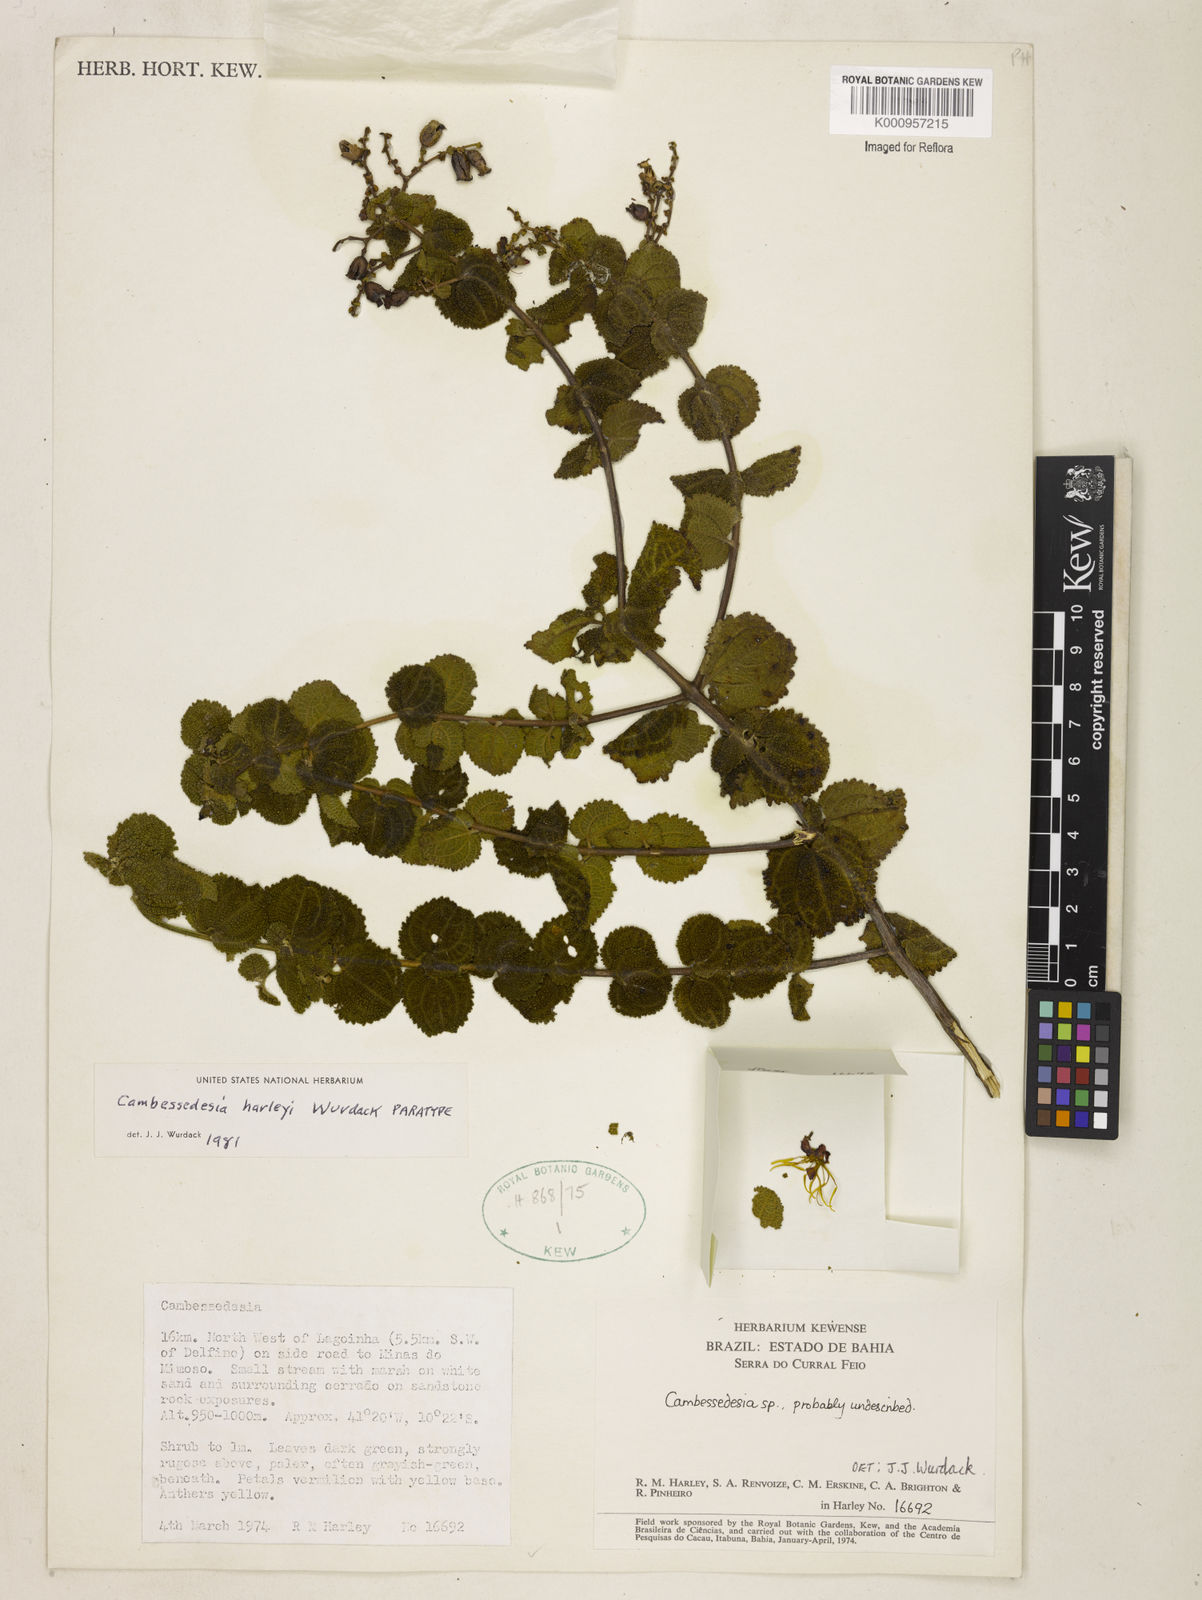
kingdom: Plantae
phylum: Tracheophyta
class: Magnoliopsida
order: Myrtales
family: Melastomataceae
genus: Cambessedesia
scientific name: Cambessedesia harleyi
